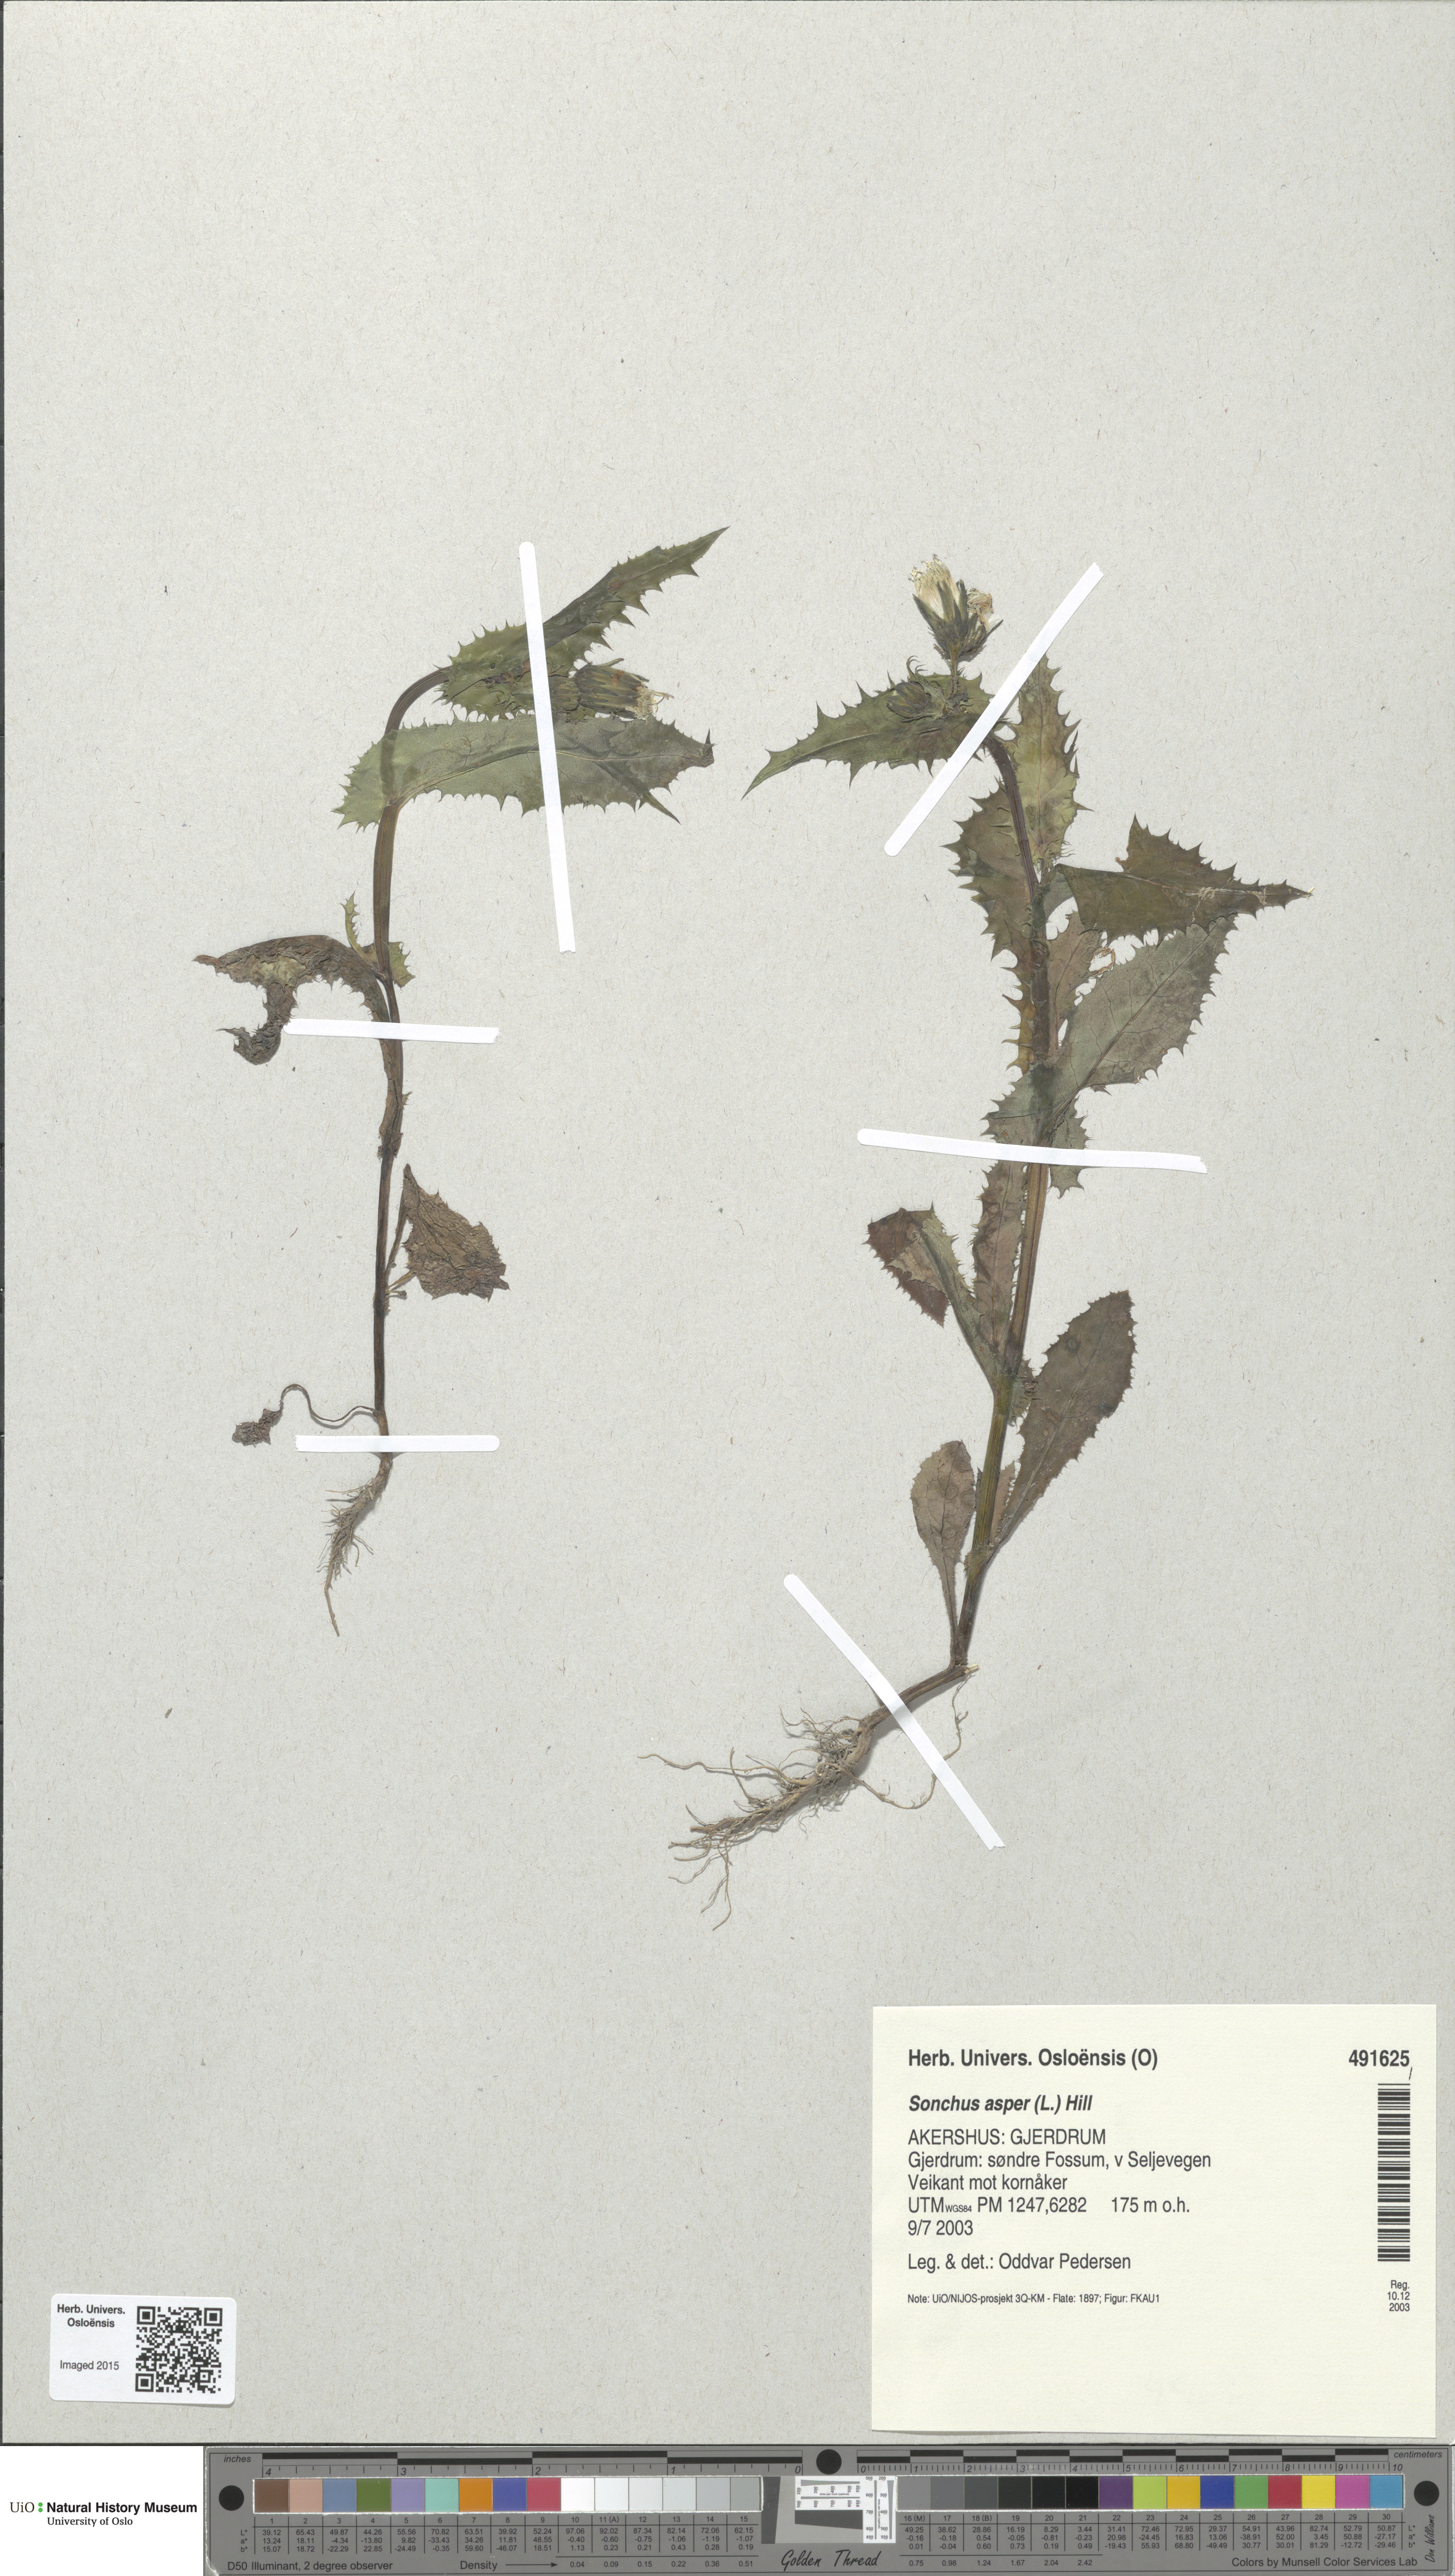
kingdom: Plantae
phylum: Tracheophyta
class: Magnoliopsida
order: Asterales
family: Asteraceae
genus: Sonchus
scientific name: Sonchus asper
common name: Prickly sow-thistle
